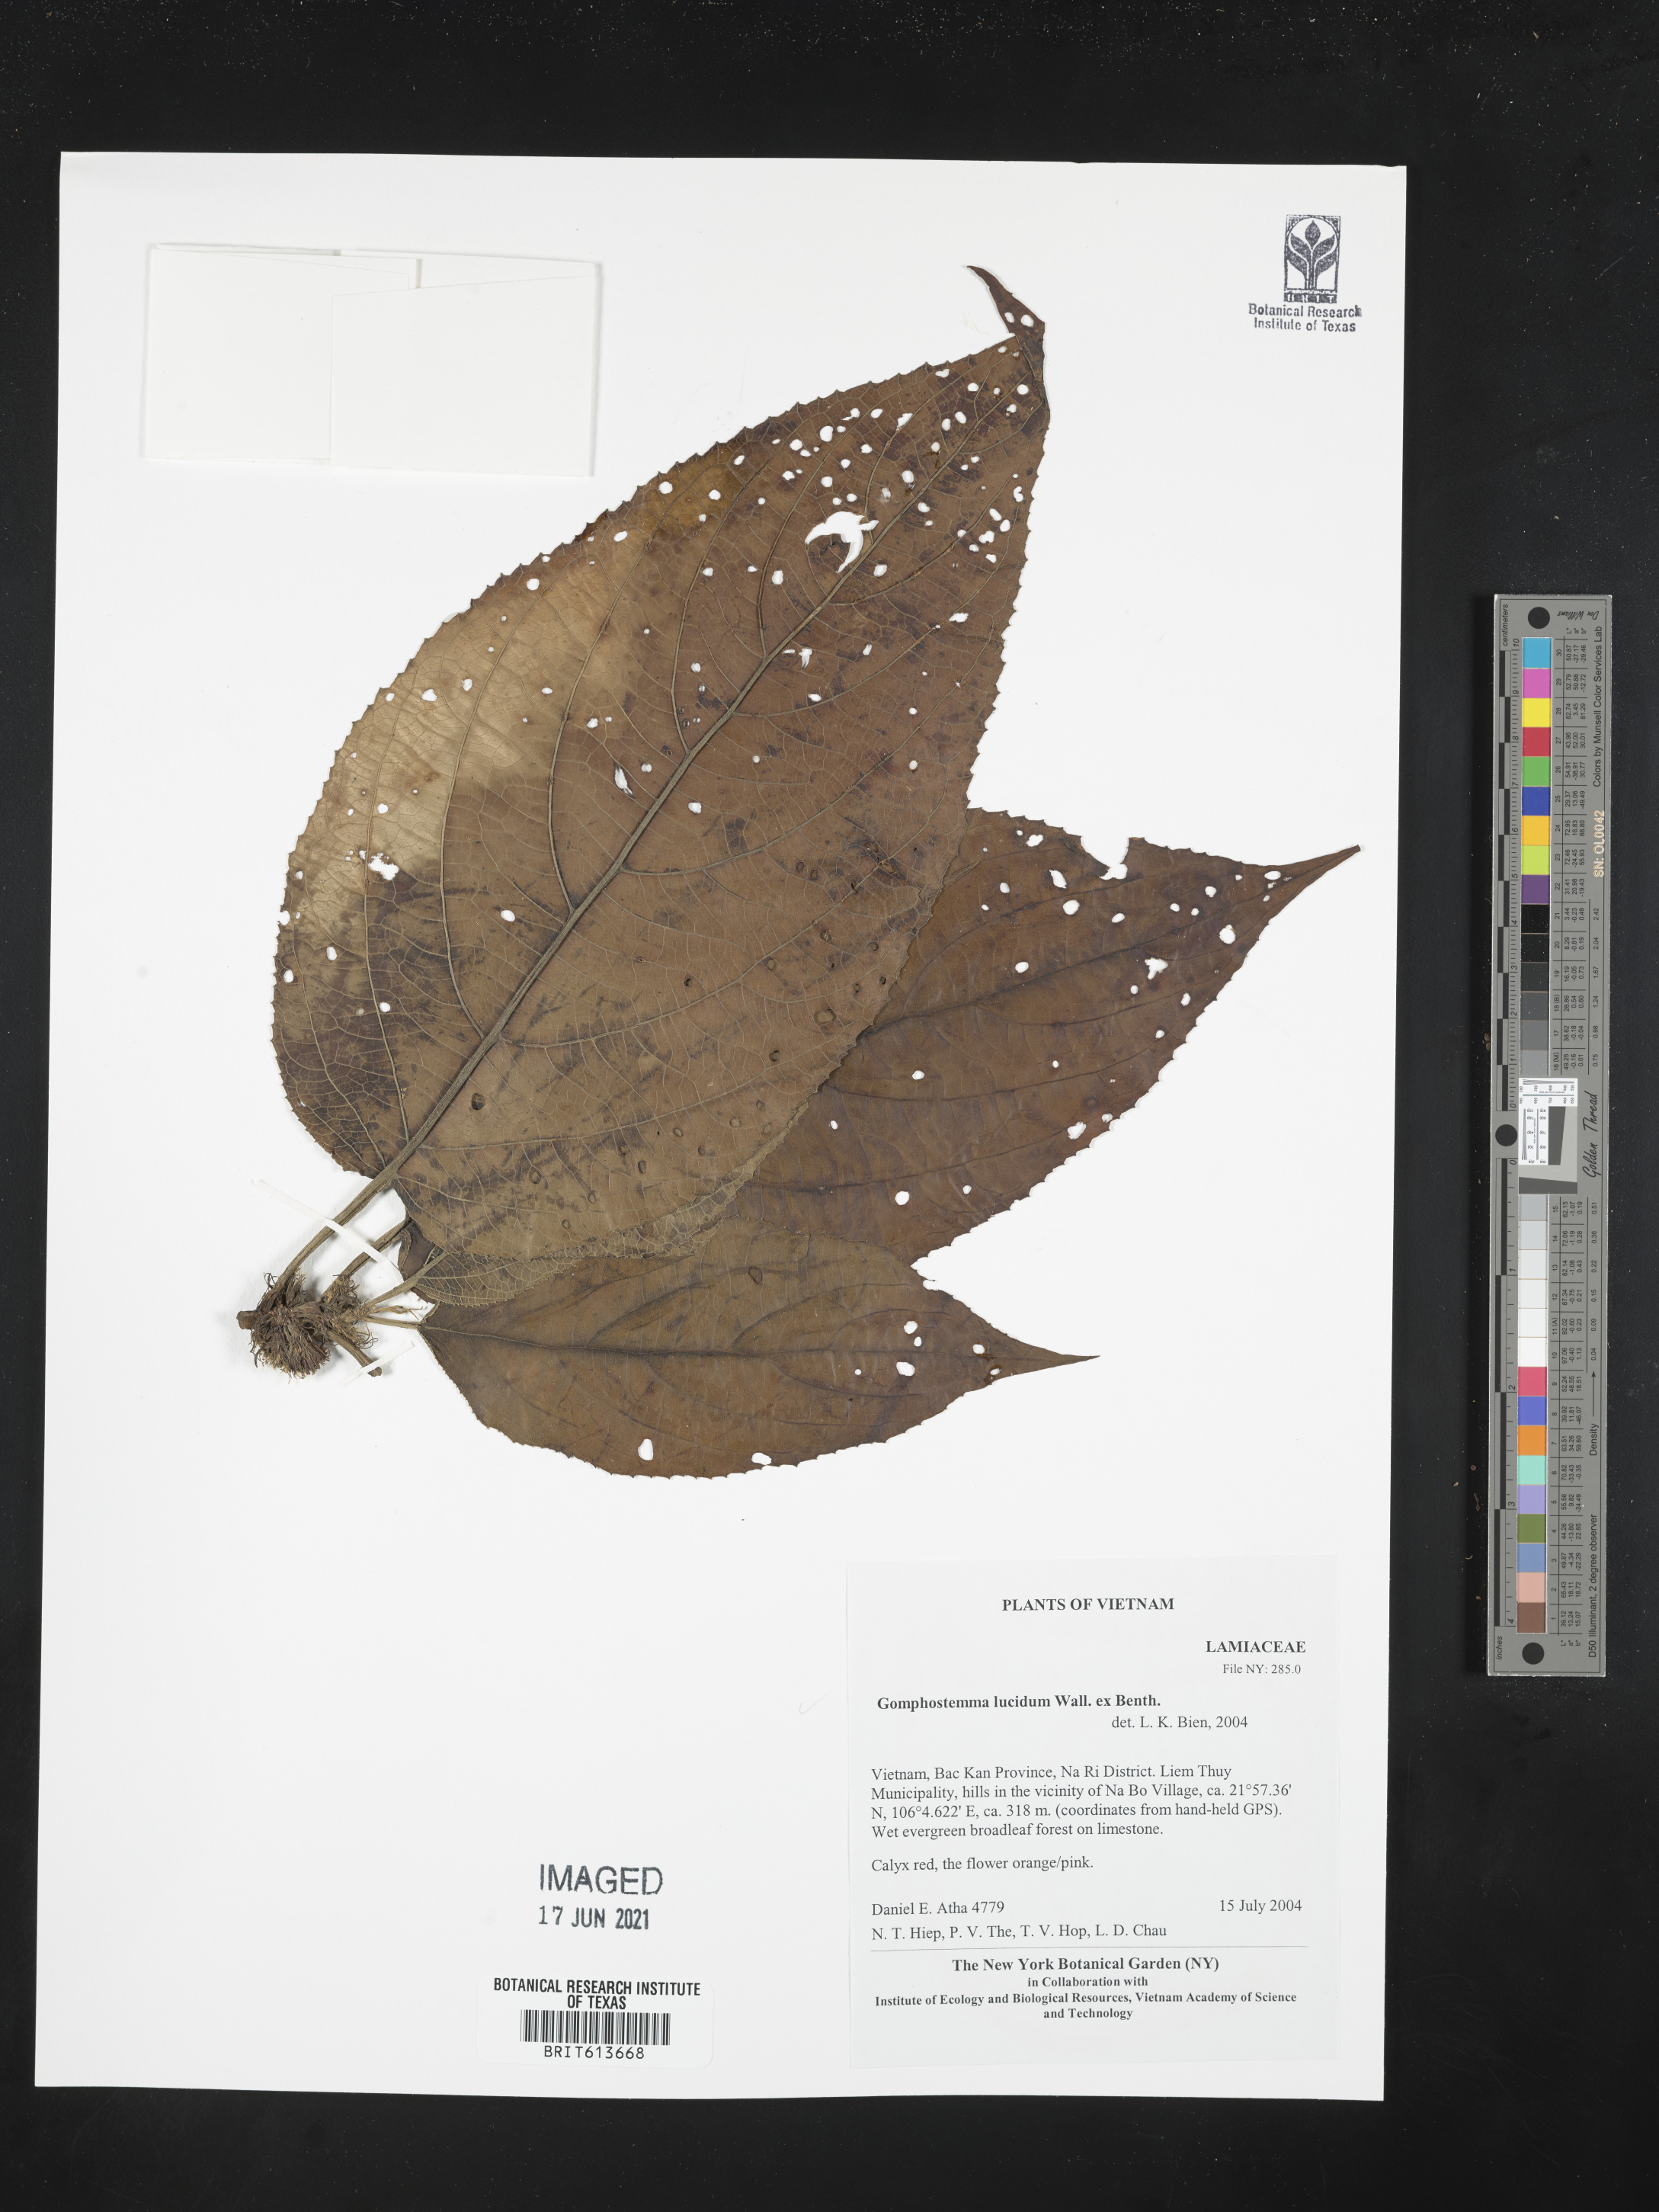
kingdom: Plantae
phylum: Tracheophyta
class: Magnoliopsida
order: Lamiales
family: Lamiaceae
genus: Gomphostemma
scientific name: Gomphostemma javanicum
